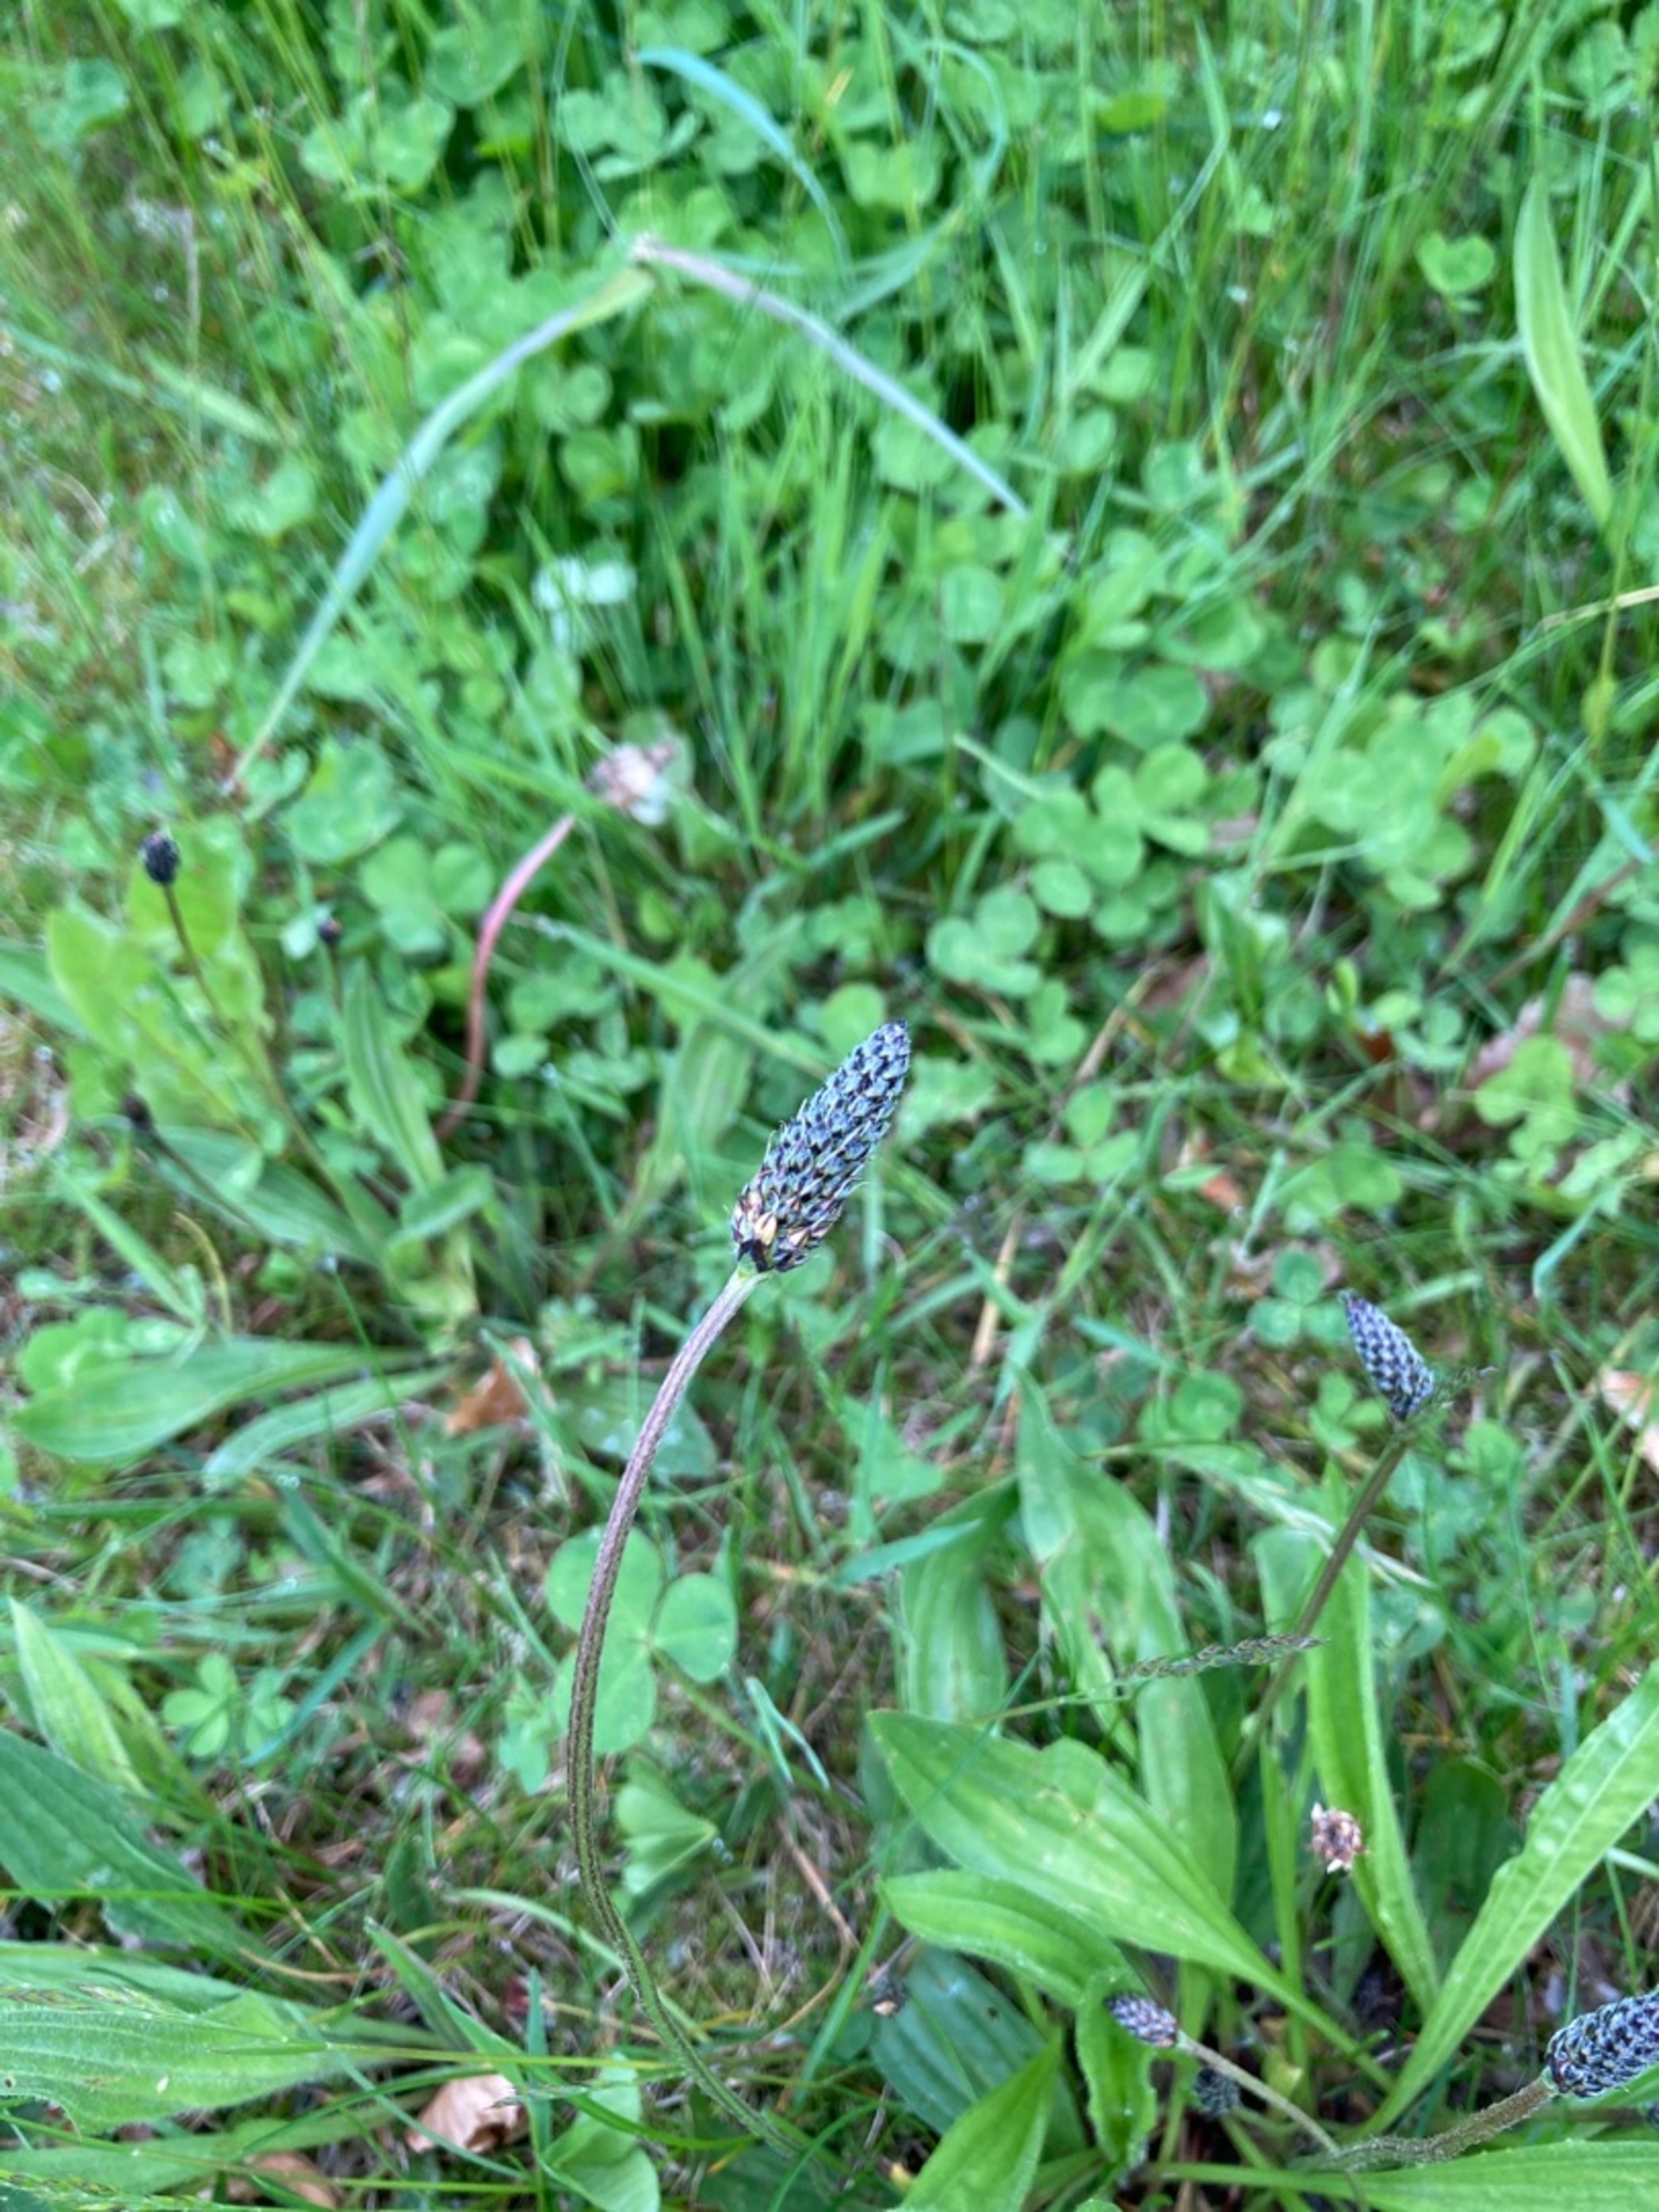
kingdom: Plantae
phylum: Tracheophyta
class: Magnoliopsida
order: Lamiales
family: Plantaginaceae
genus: Plantago
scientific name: Plantago lanceolata
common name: Lancet-vejbred
